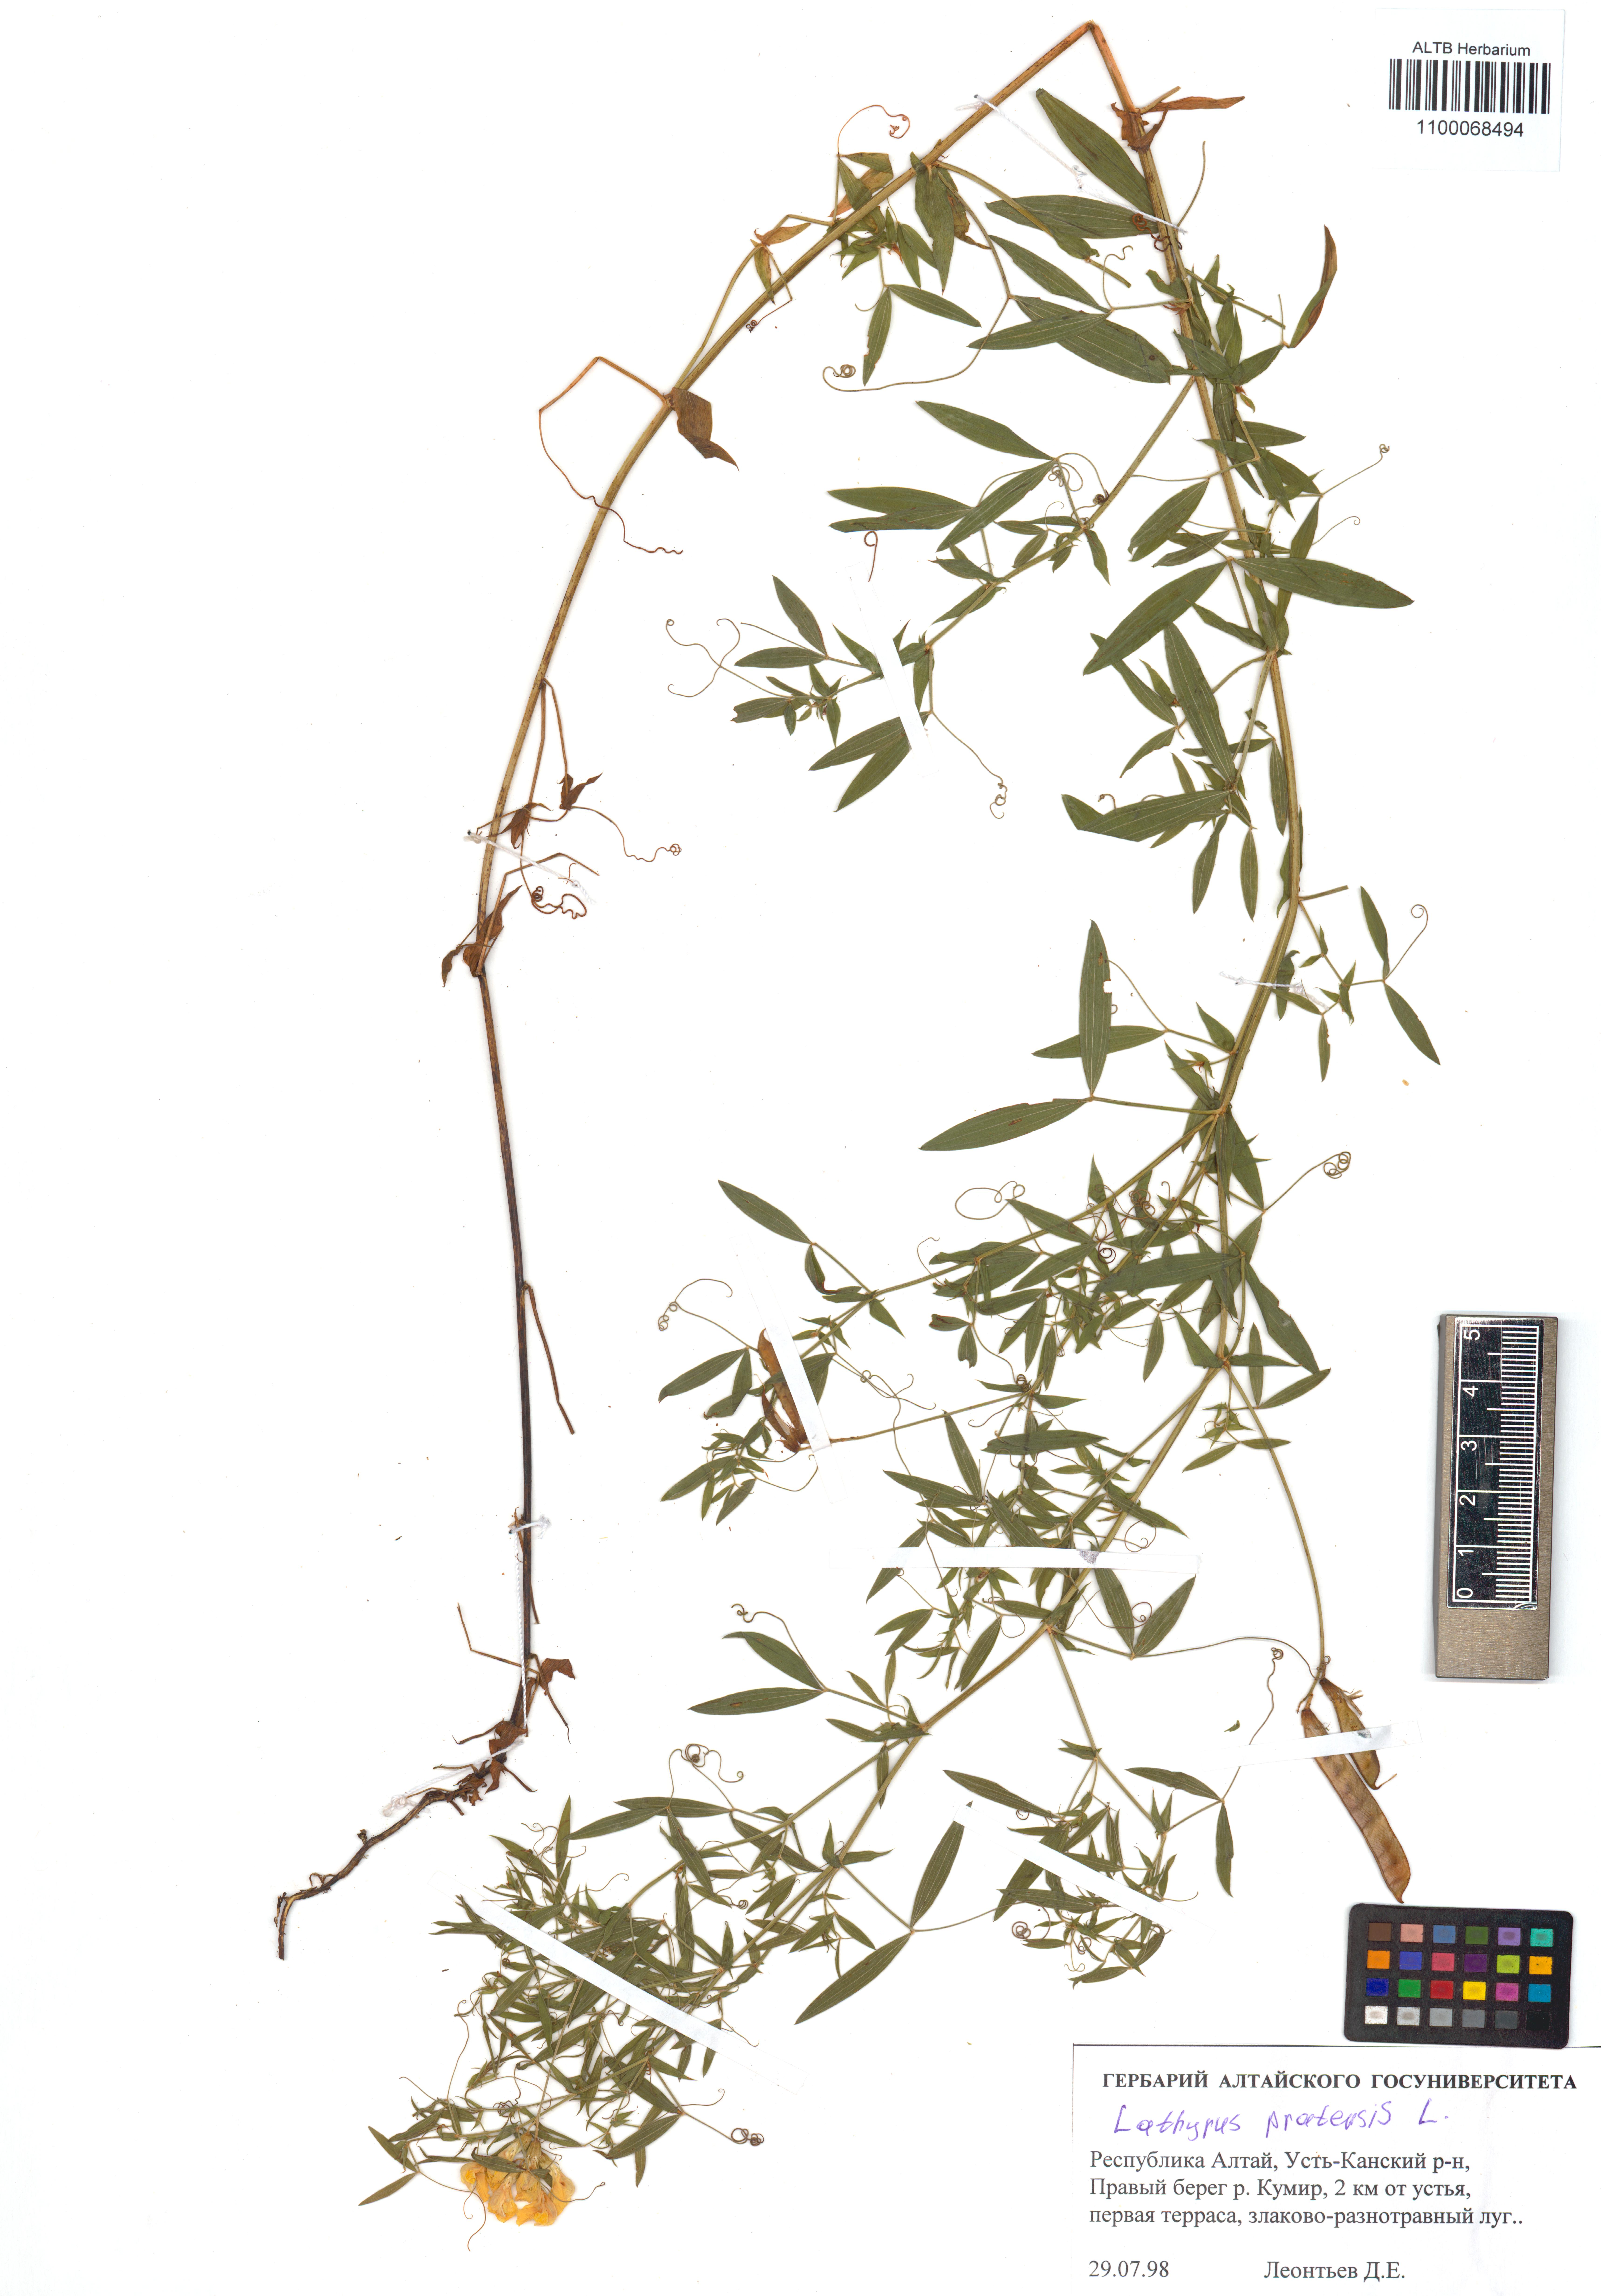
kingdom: Plantae
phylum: Tracheophyta
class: Magnoliopsida
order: Fabales
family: Fabaceae
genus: Lathyrus
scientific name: Lathyrus pratensis
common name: Meadow vetchling
